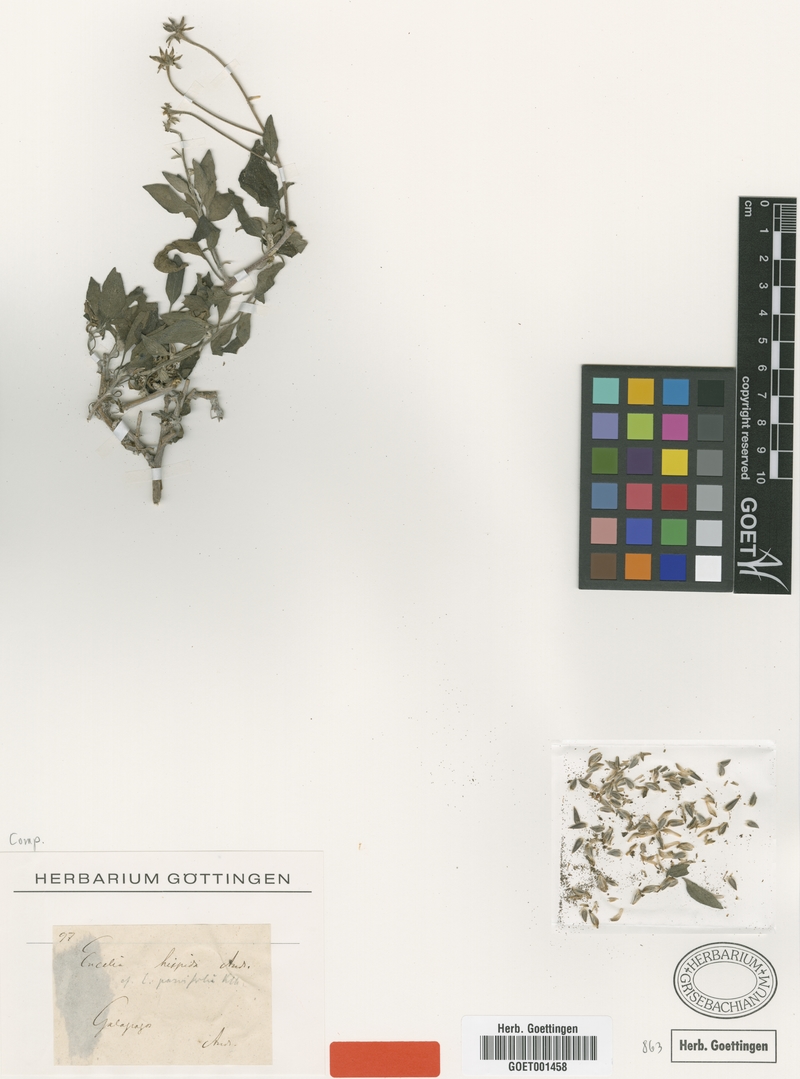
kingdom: Plantae
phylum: Tracheophyta
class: Magnoliopsida
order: Asterales
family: Asteraceae
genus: Encelia
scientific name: Encelia hispida
